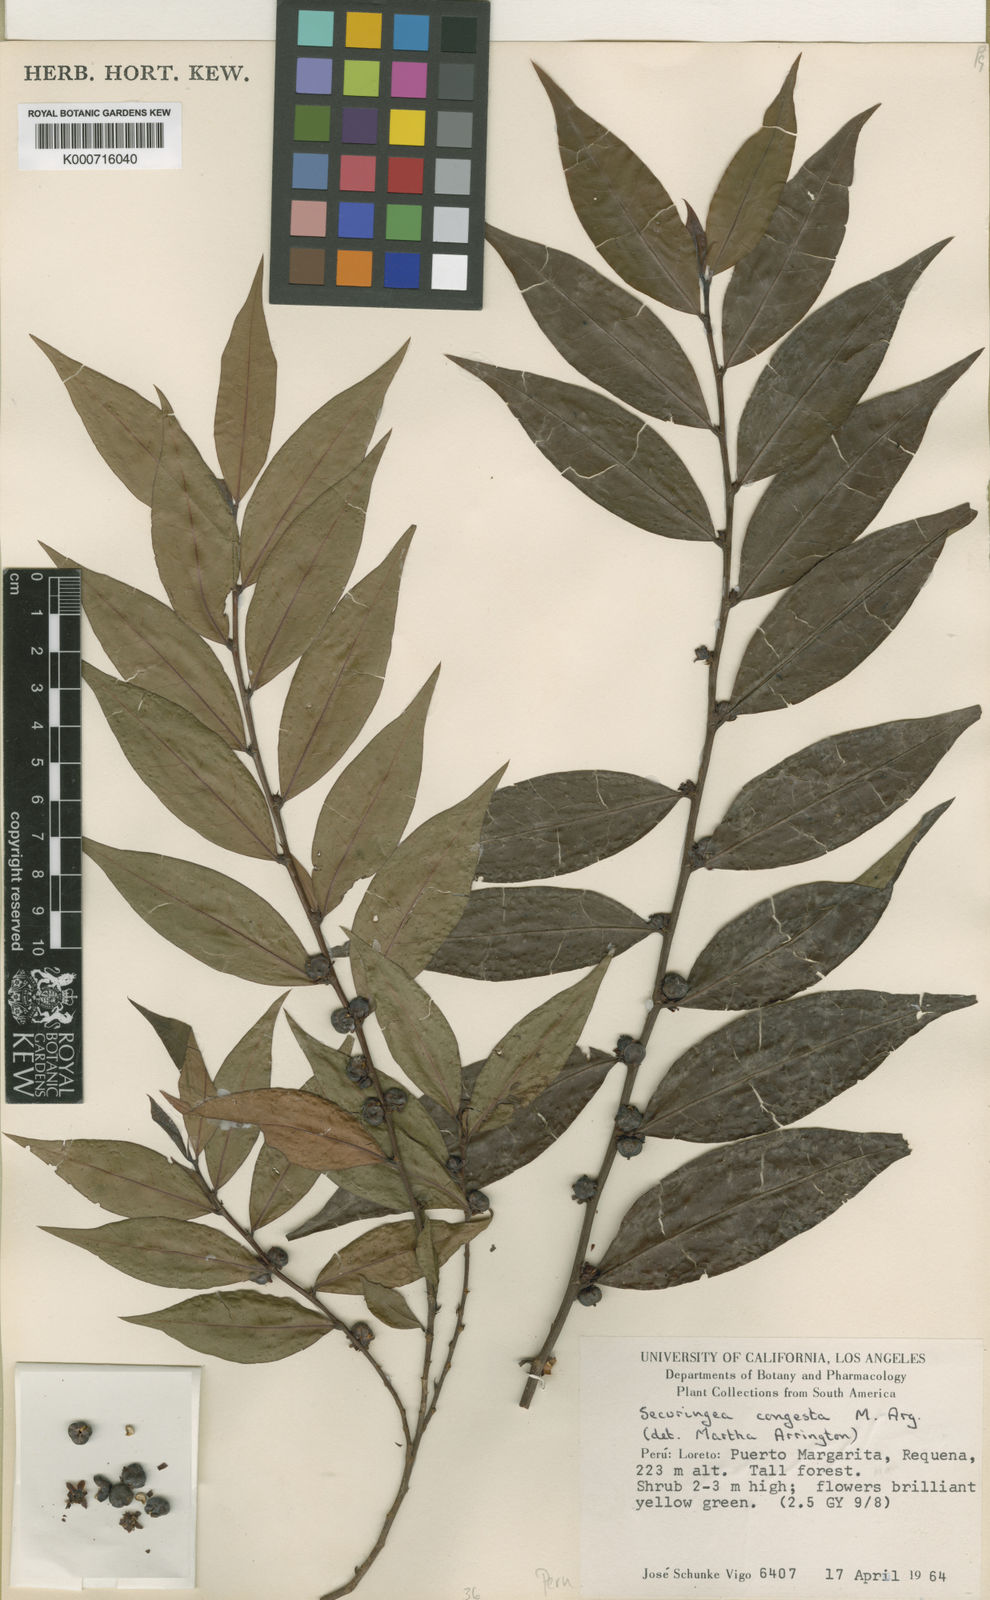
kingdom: Plantae
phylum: Tracheophyta
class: Magnoliopsida
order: Malpighiales
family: Phyllanthaceae
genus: Jablonskia
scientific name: Jablonskia congesta
